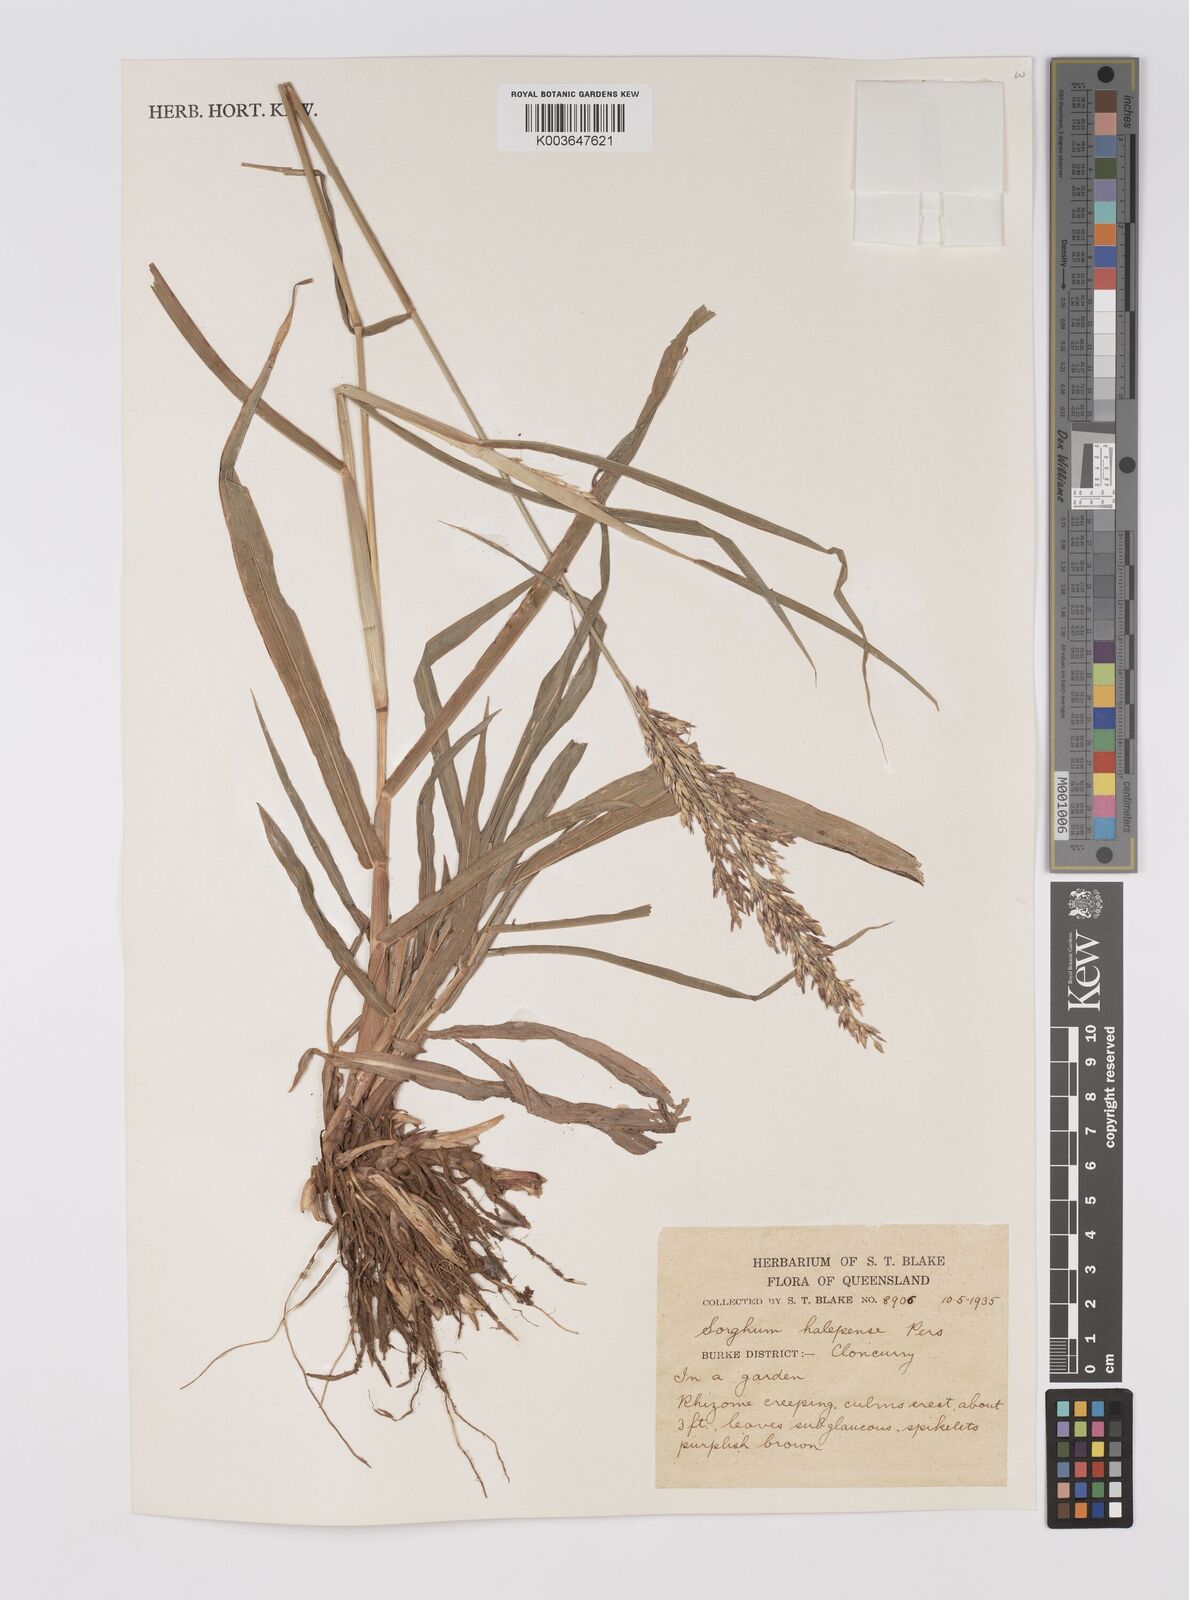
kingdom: Plantae
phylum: Tracheophyta
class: Liliopsida
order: Poales
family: Poaceae
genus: Sorghum
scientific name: Sorghum halepense
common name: Johnson-grass
